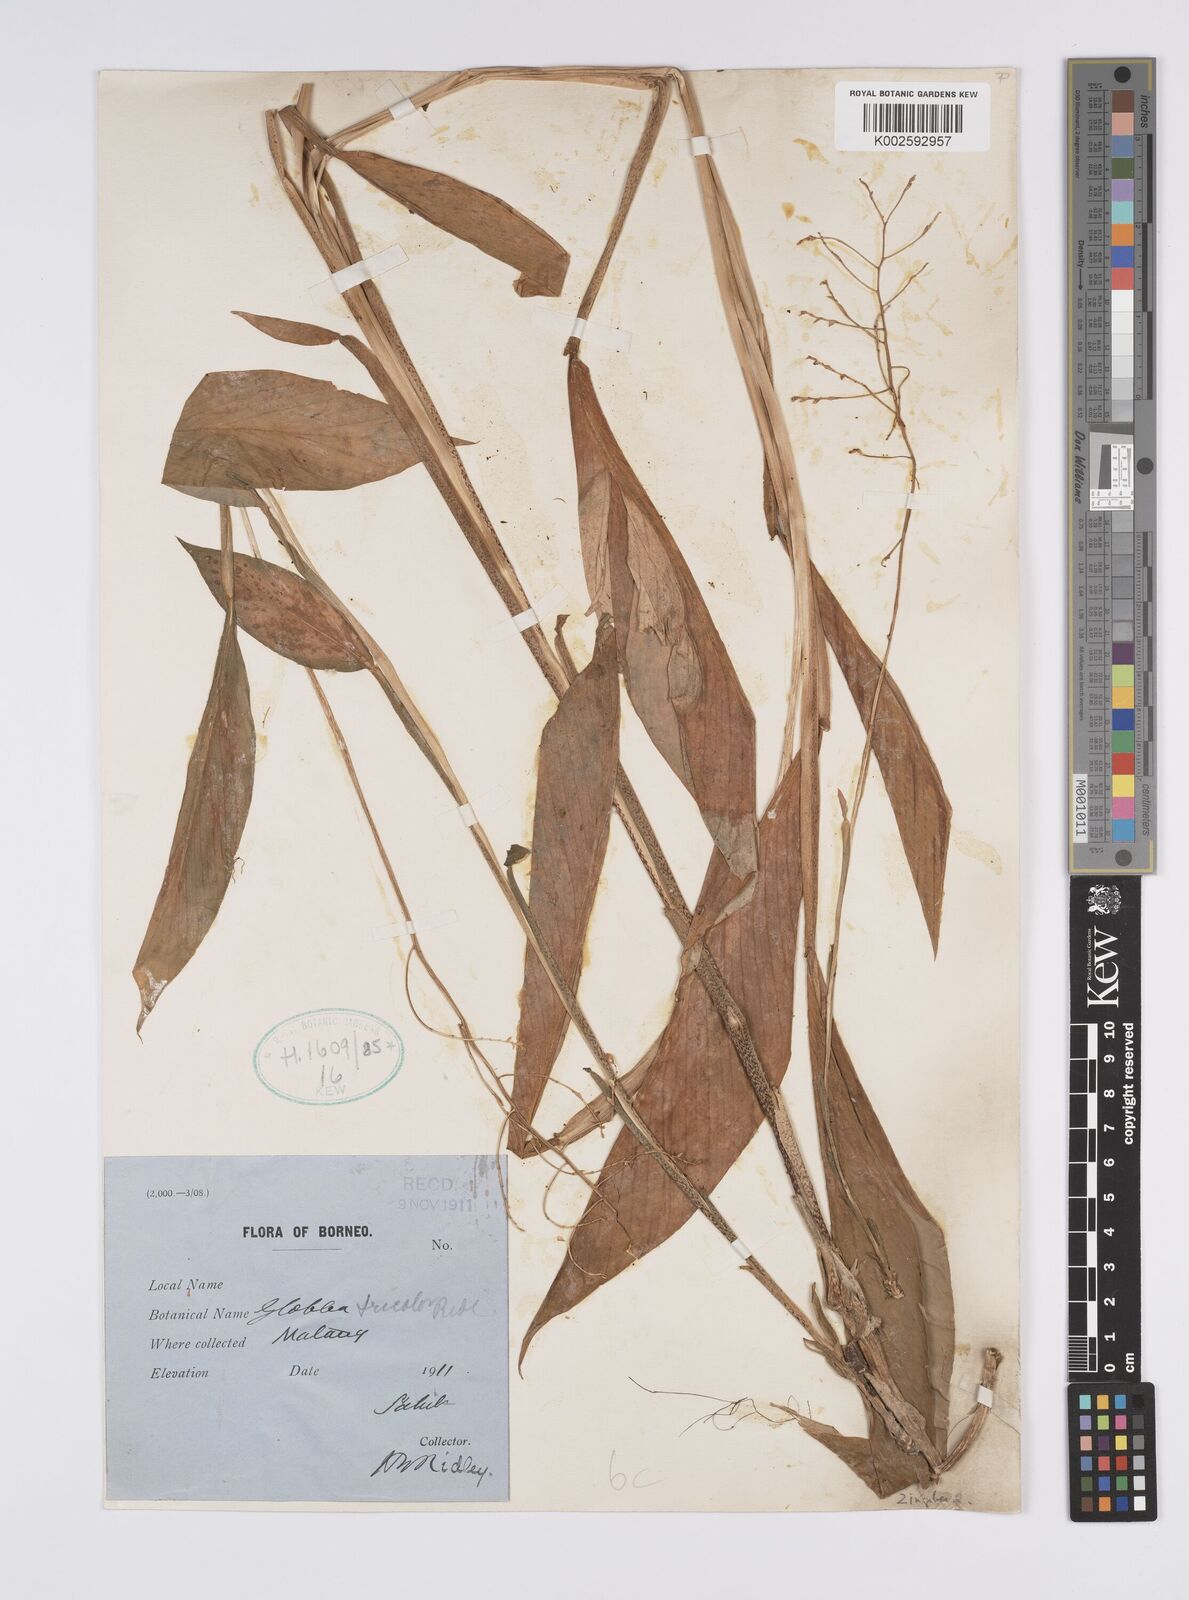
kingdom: Plantae
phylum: Tracheophyta
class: Liliopsida
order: Zingiberales
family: Zingiberaceae
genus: Globba
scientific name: Globba tricolor
